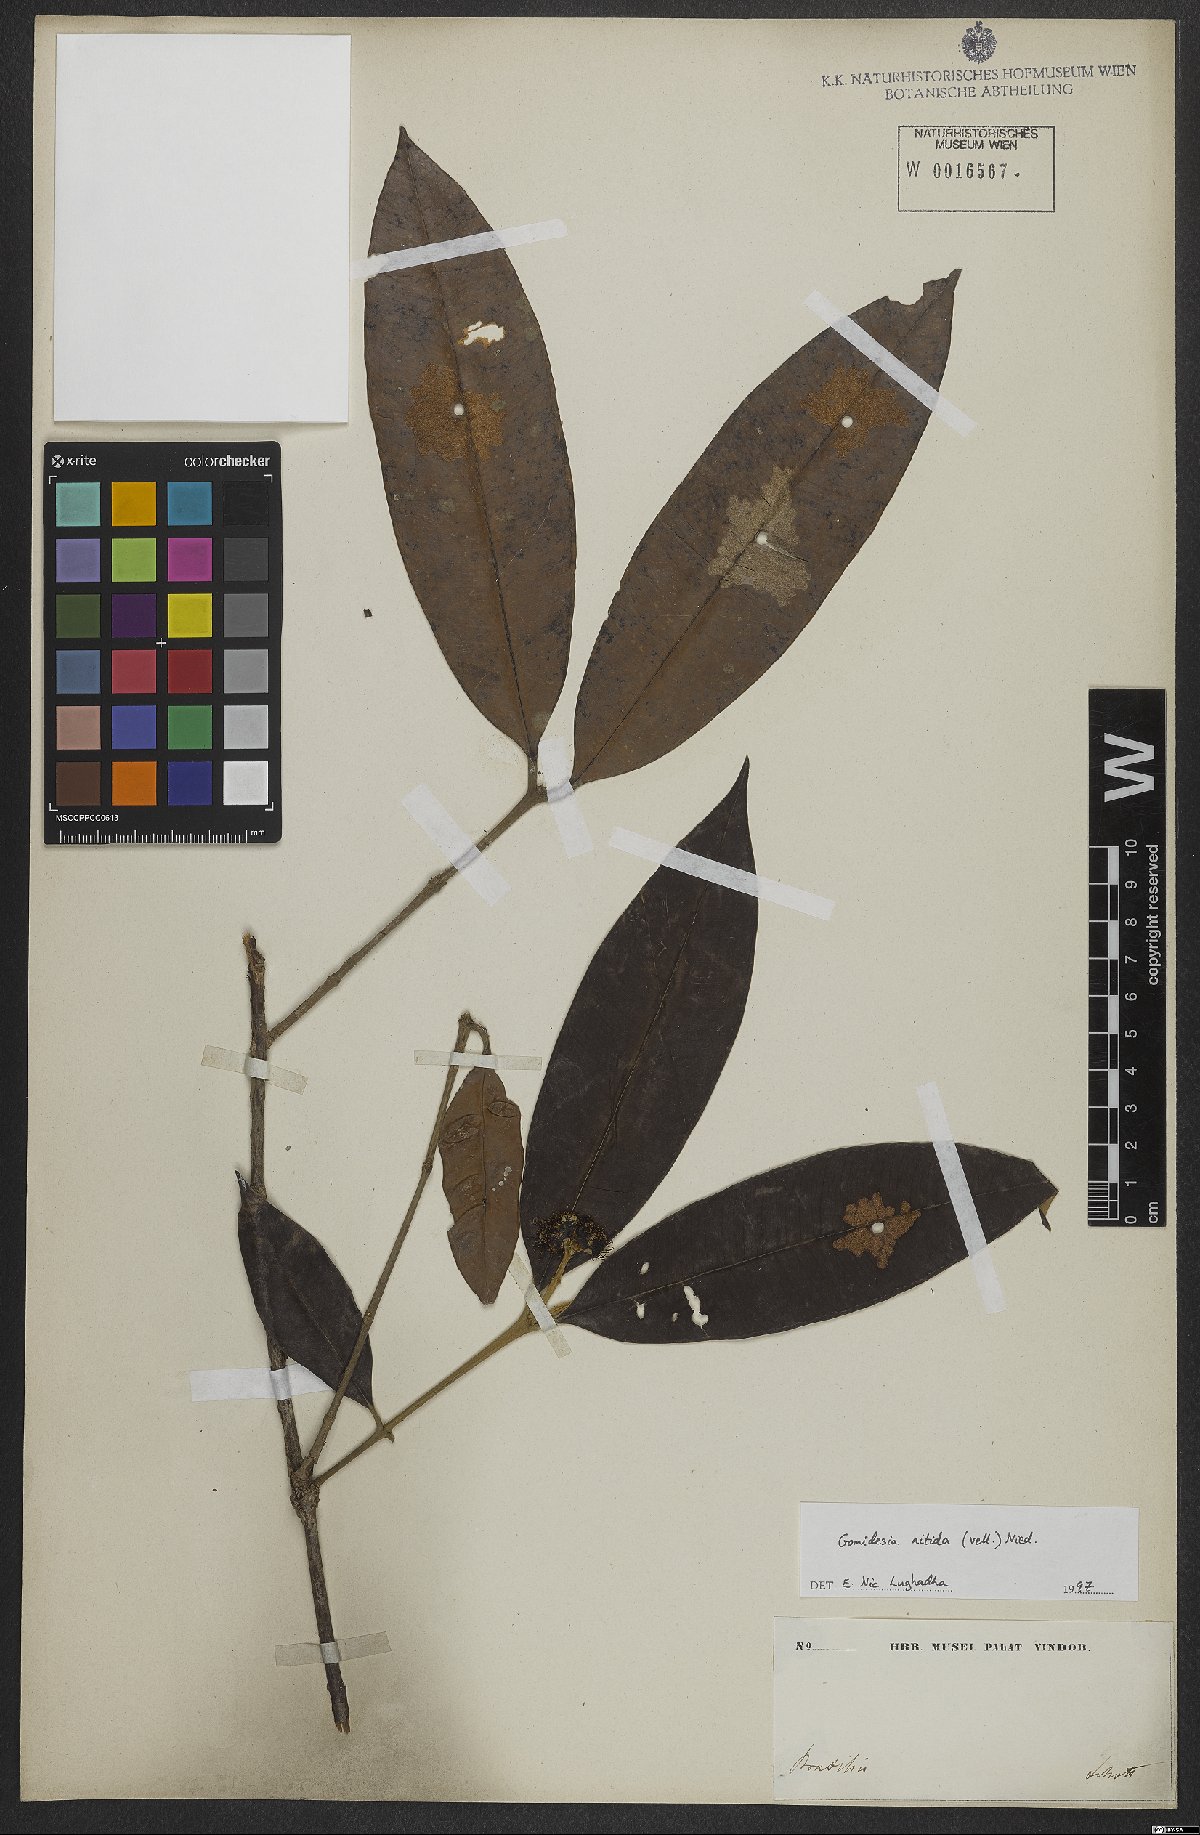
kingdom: Plantae
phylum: Tracheophyta
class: Magnoliopsida
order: Myrtales
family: Myrtaceae
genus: Myrcia
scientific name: Myrcia subsericea
